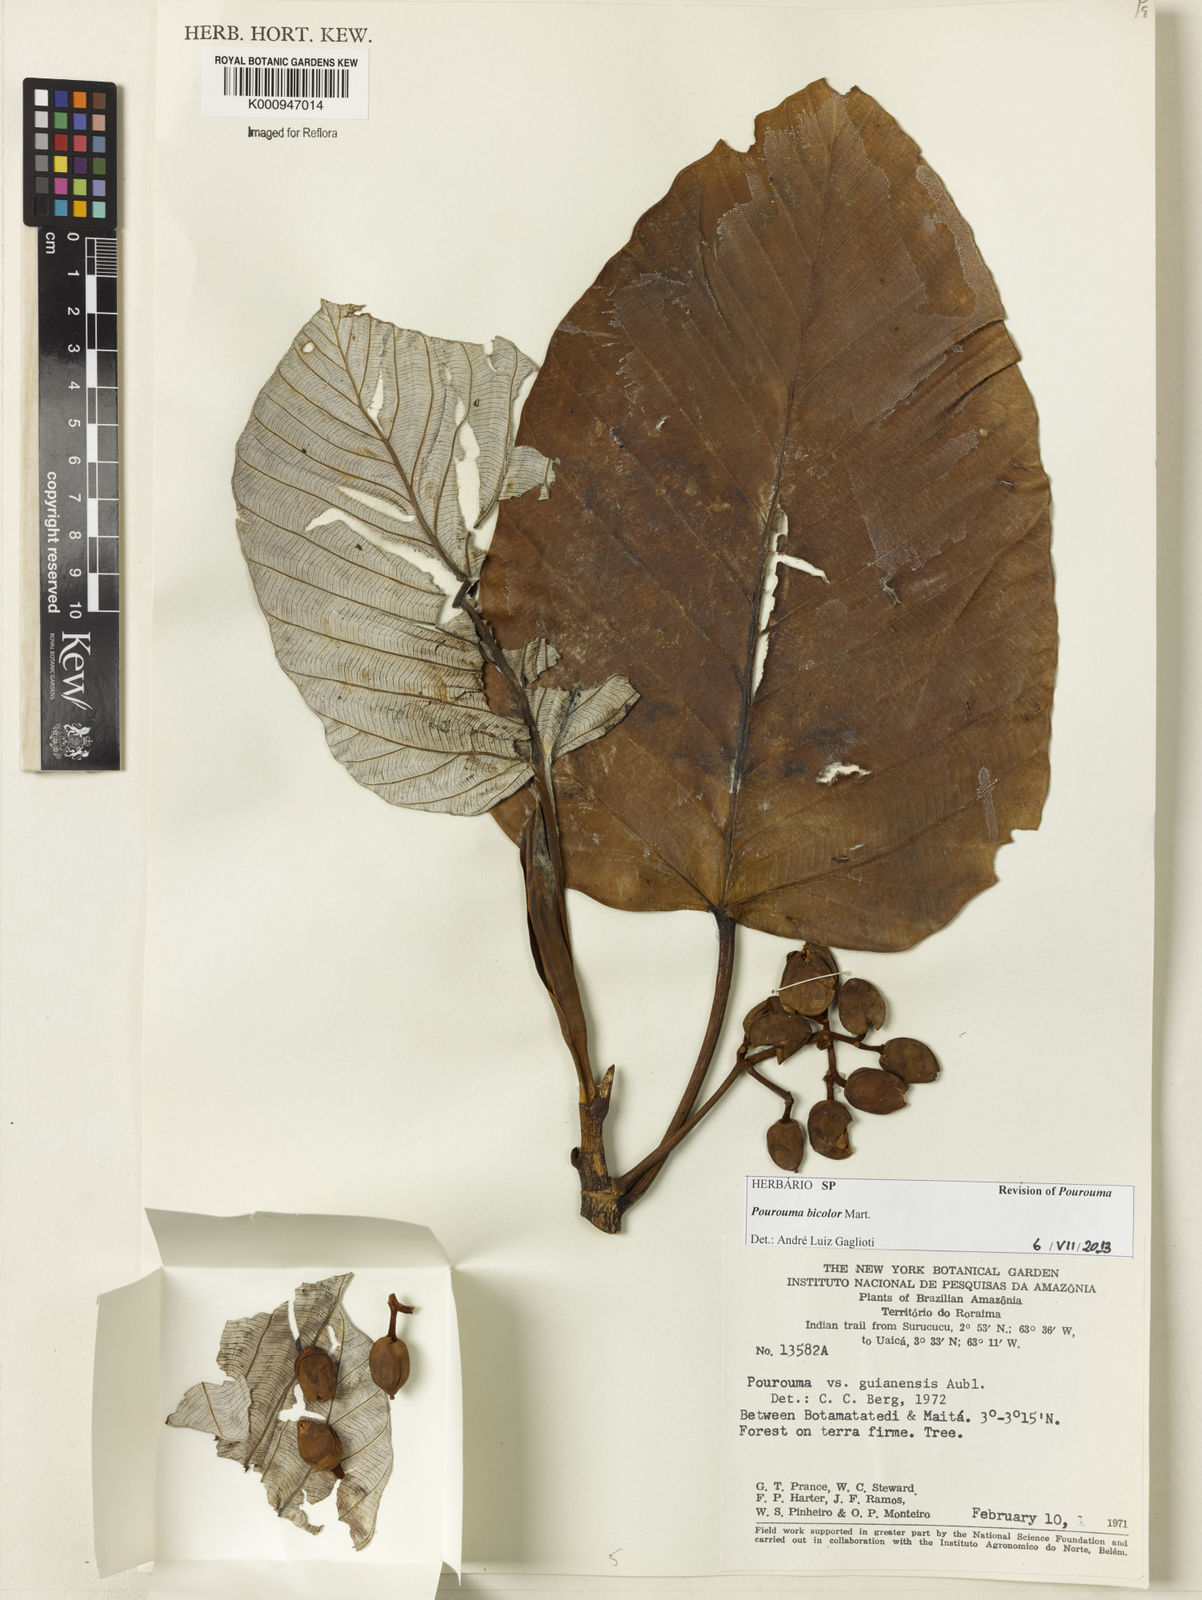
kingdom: Plantae
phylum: Tracheophyta
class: Magnoliopsida
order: Rosales
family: Urticaceae
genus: Pourouma
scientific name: Pourouma bicolor
